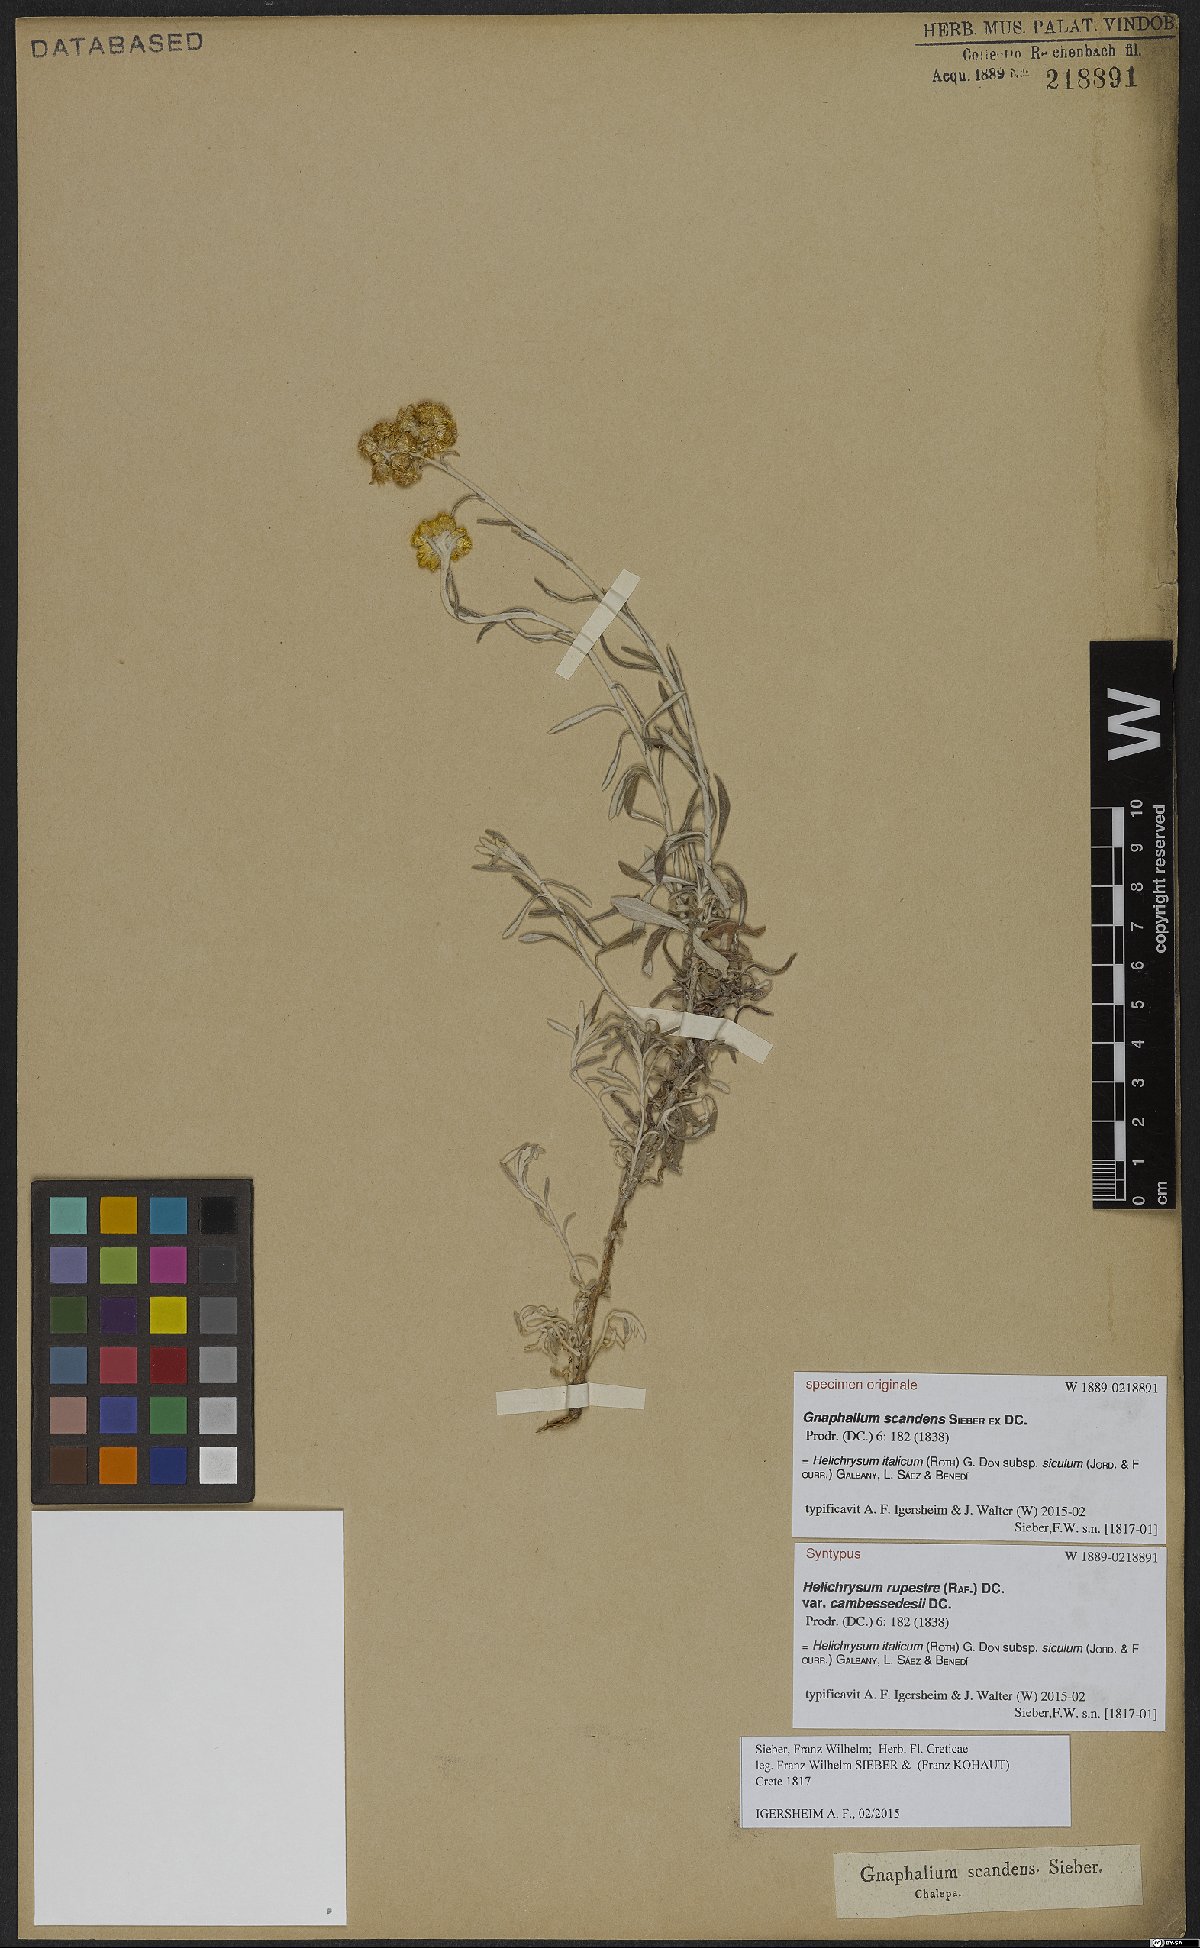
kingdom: Plantae
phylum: Tracheophyta
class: Magnoliopsida
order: Asterales
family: Asteraceae
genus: Helichrysum
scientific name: Helichrysum italicum
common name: Curryplant
